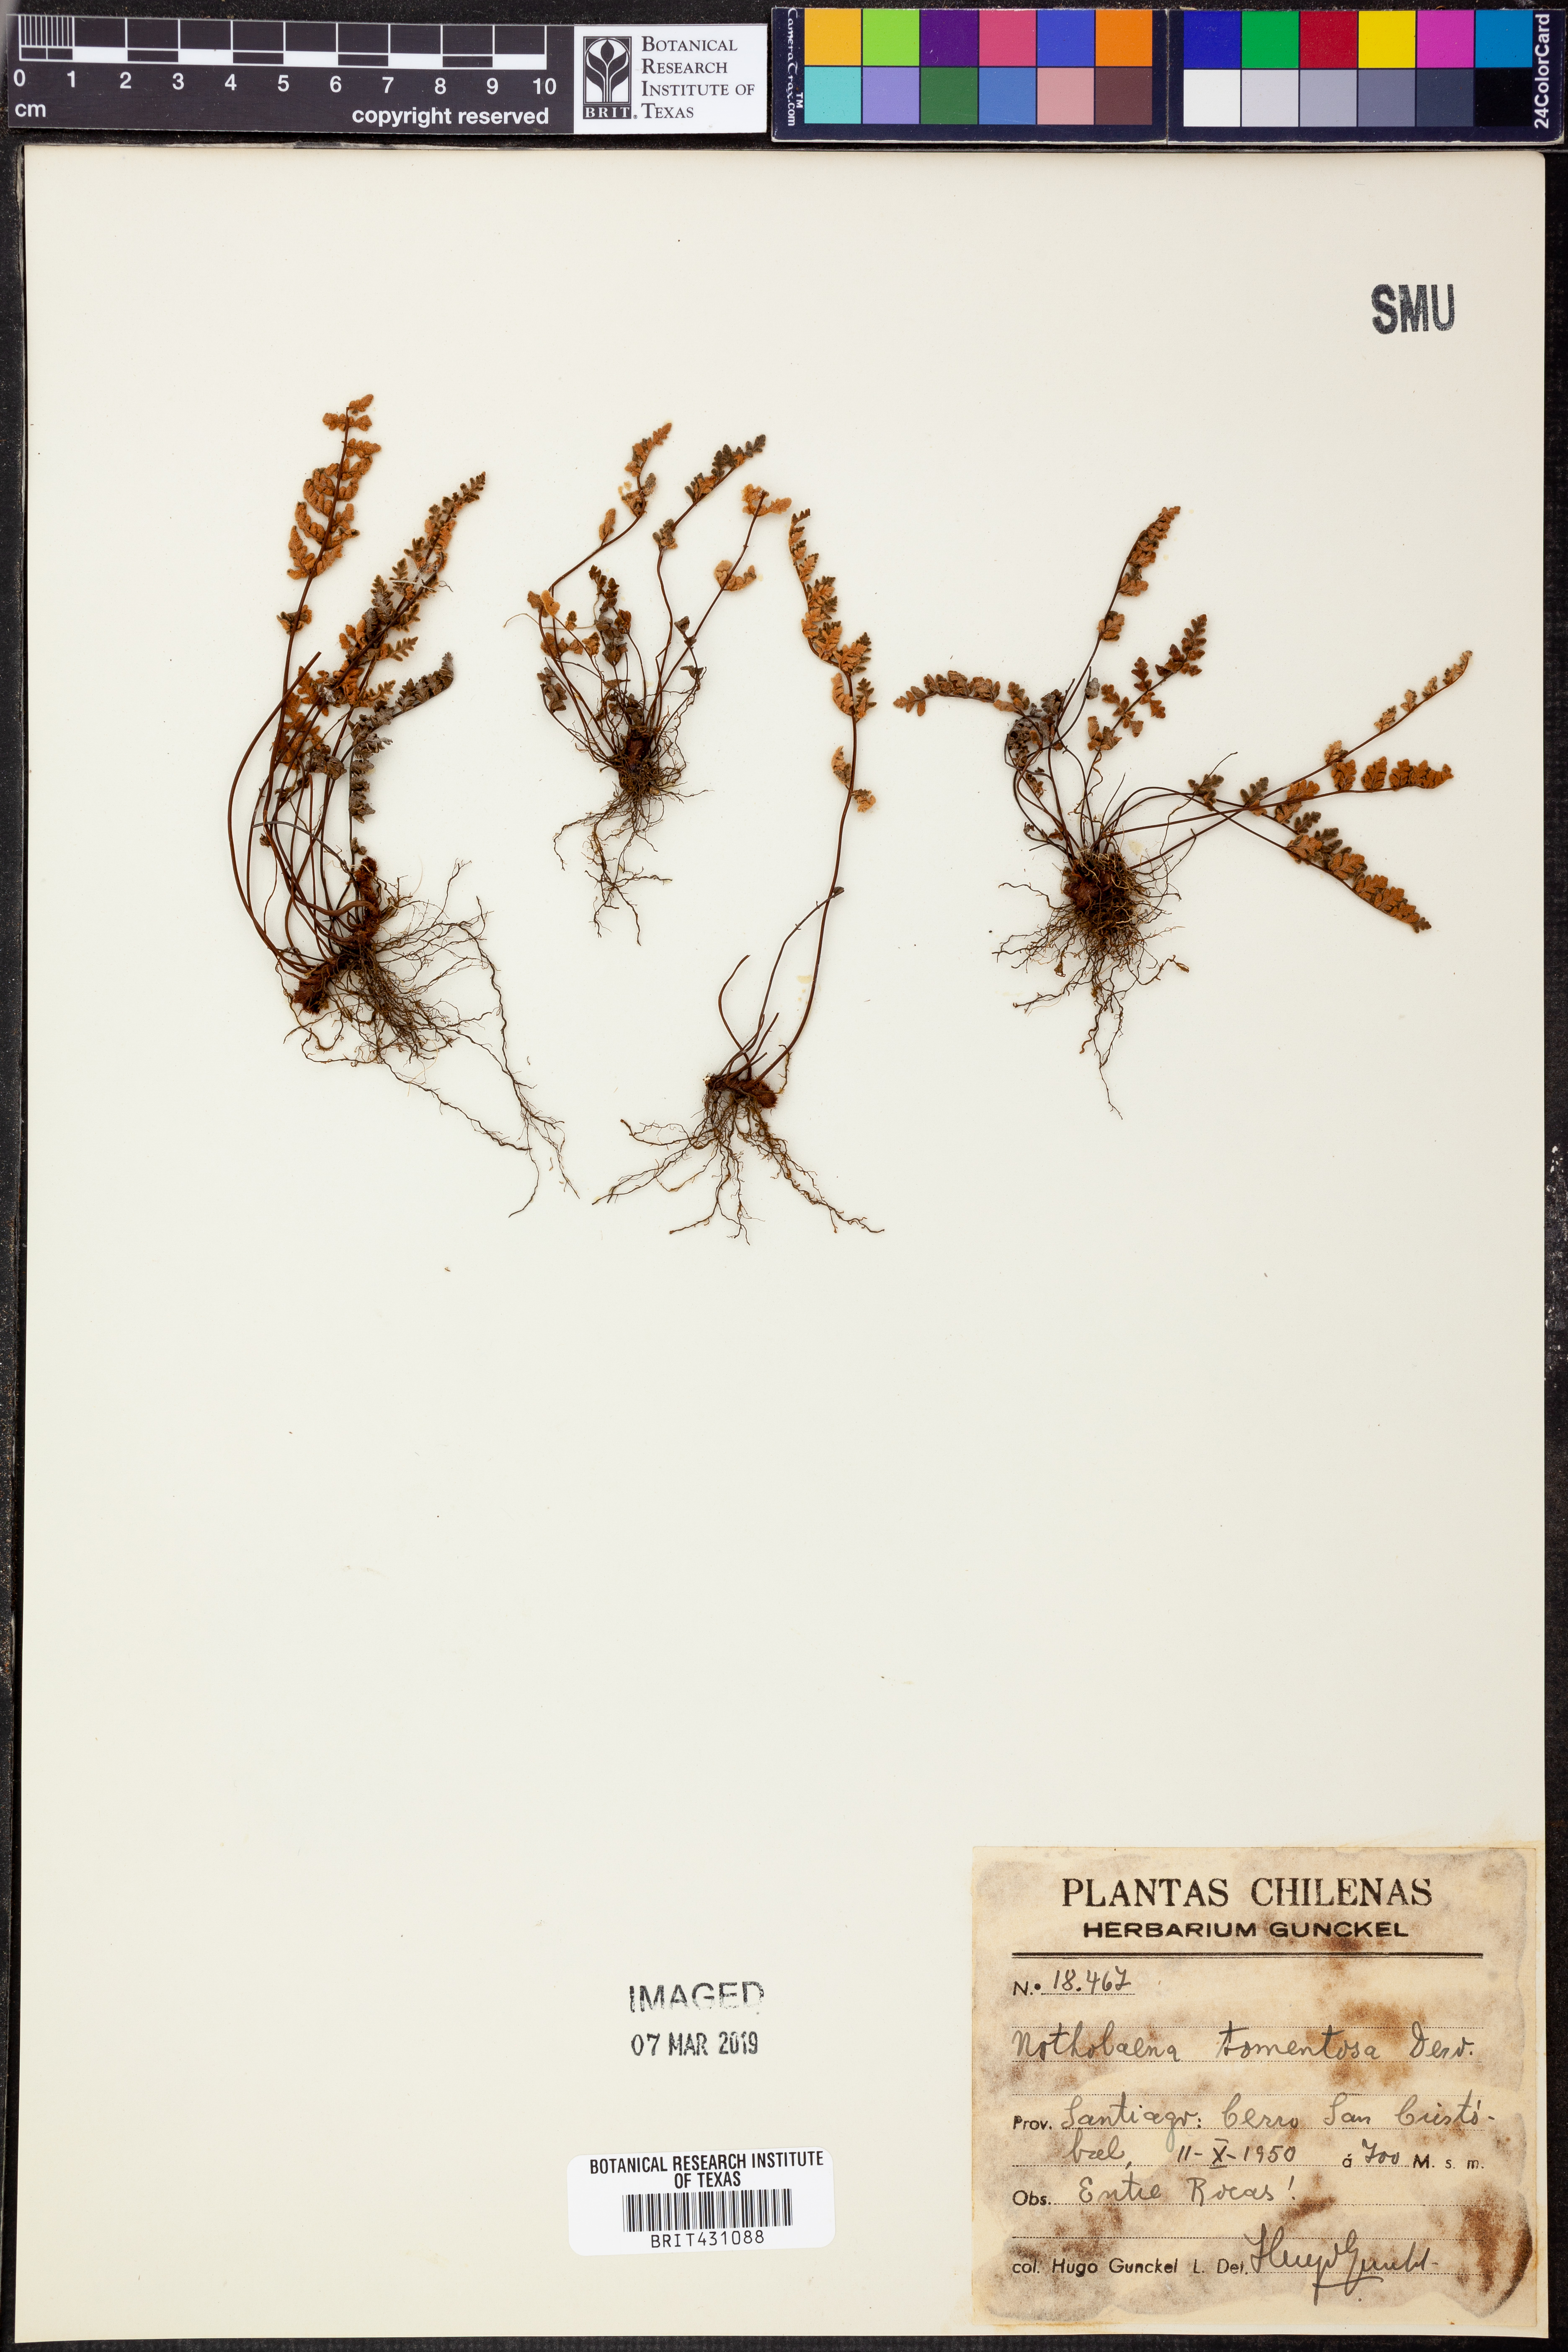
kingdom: Plantae
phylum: Tracheophyta
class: Polypodiopsida
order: Polypodiales
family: Pteridaceae
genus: Myriopteris
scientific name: Myriopteris tomentosa
